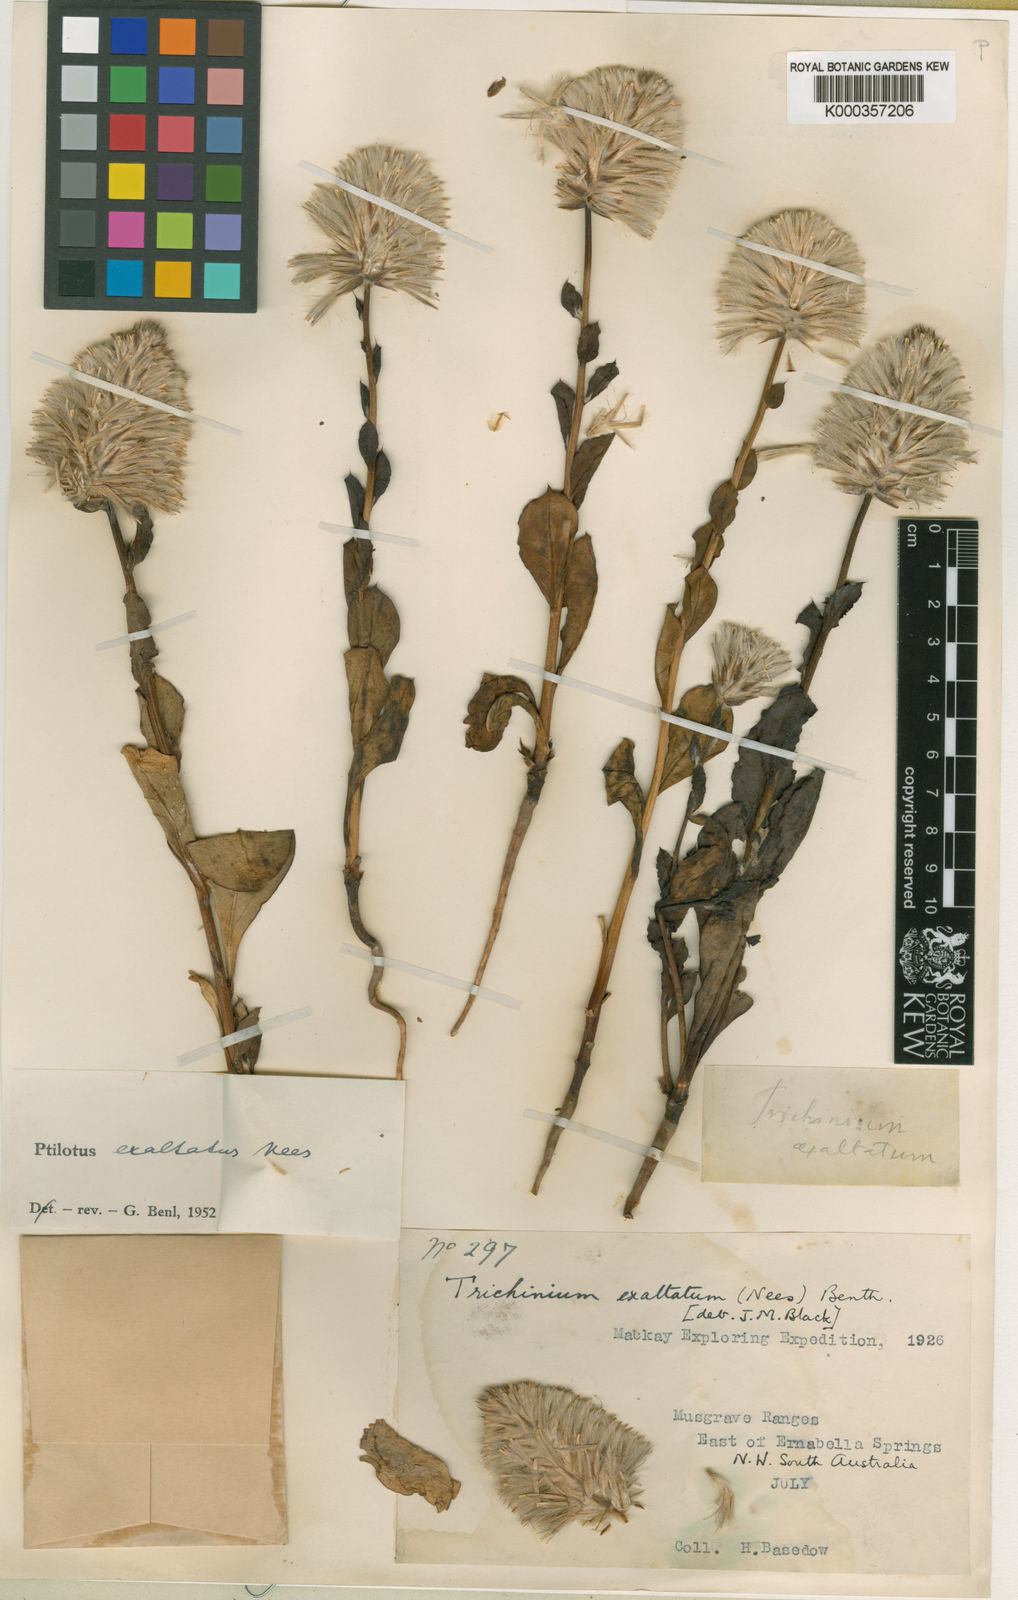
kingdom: Plantae
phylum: Tracheophyta
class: Magnoliopsida
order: Caryophyllales
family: Amaranthaceae
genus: Ptilotus
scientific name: Ptilotus exaltatus
